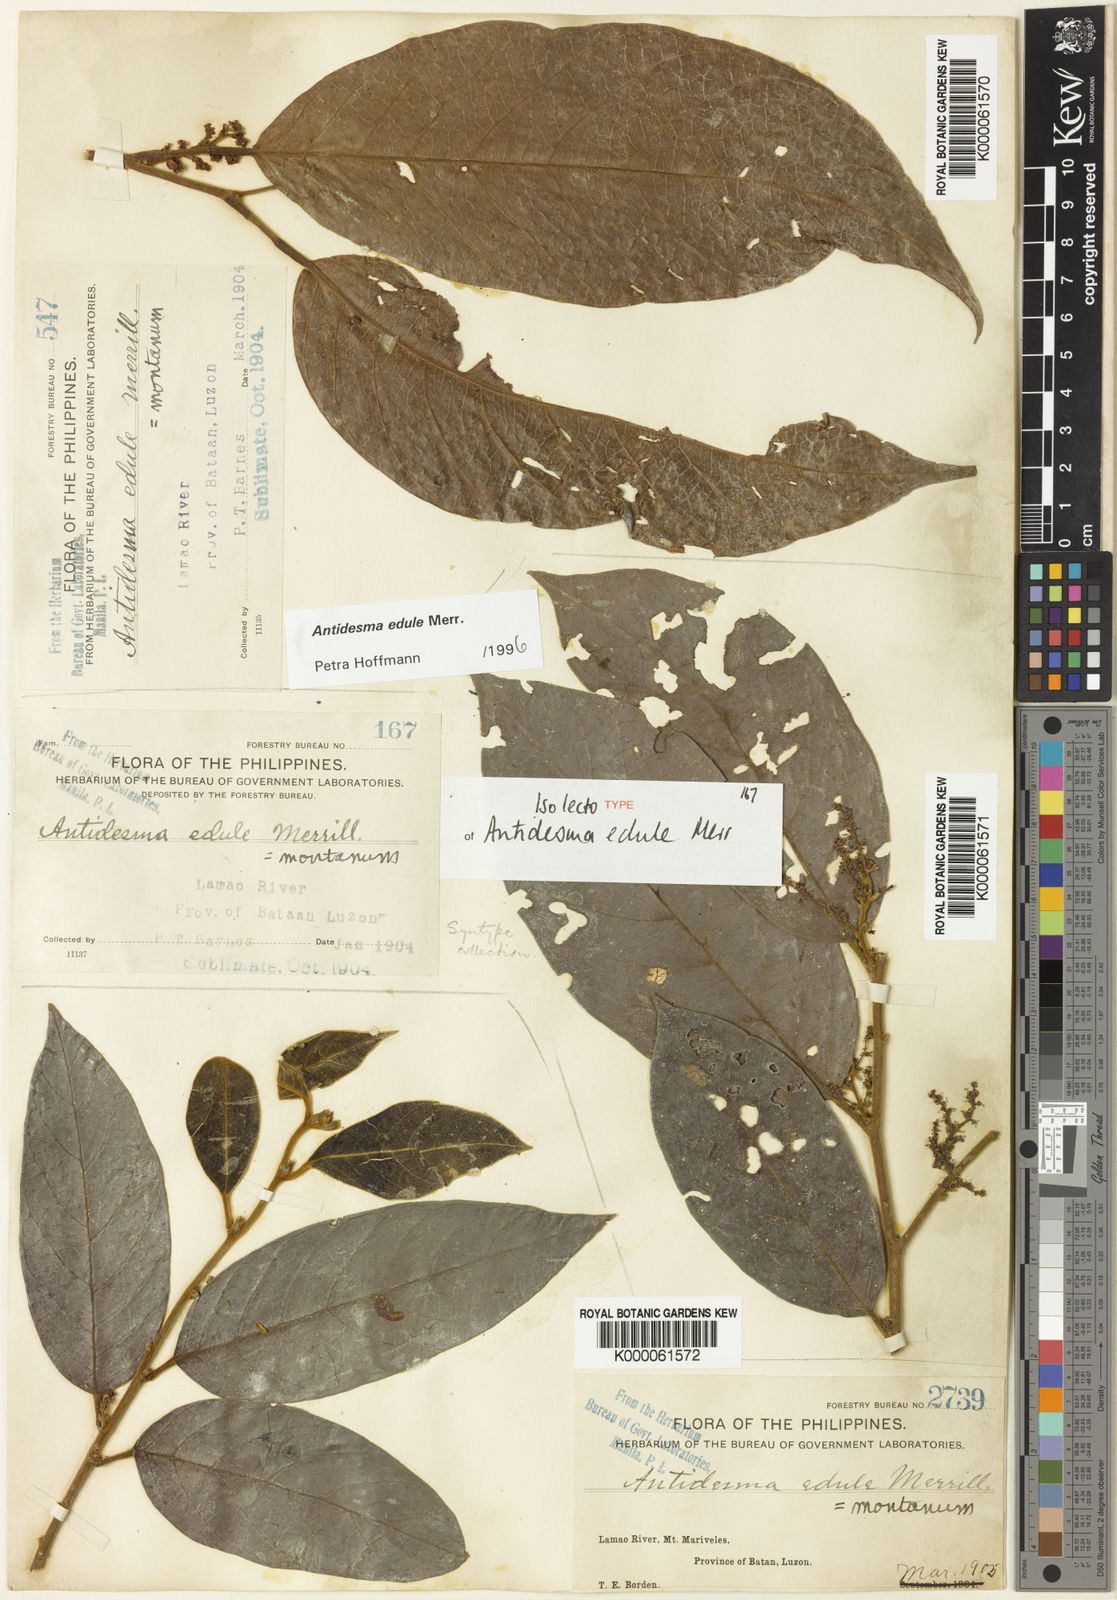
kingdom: Plantae
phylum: Tracheophyta
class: Magnoliopsida
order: Malpighiales
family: Phyllanthaceae
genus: Antidesma
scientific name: Antidesma edule
